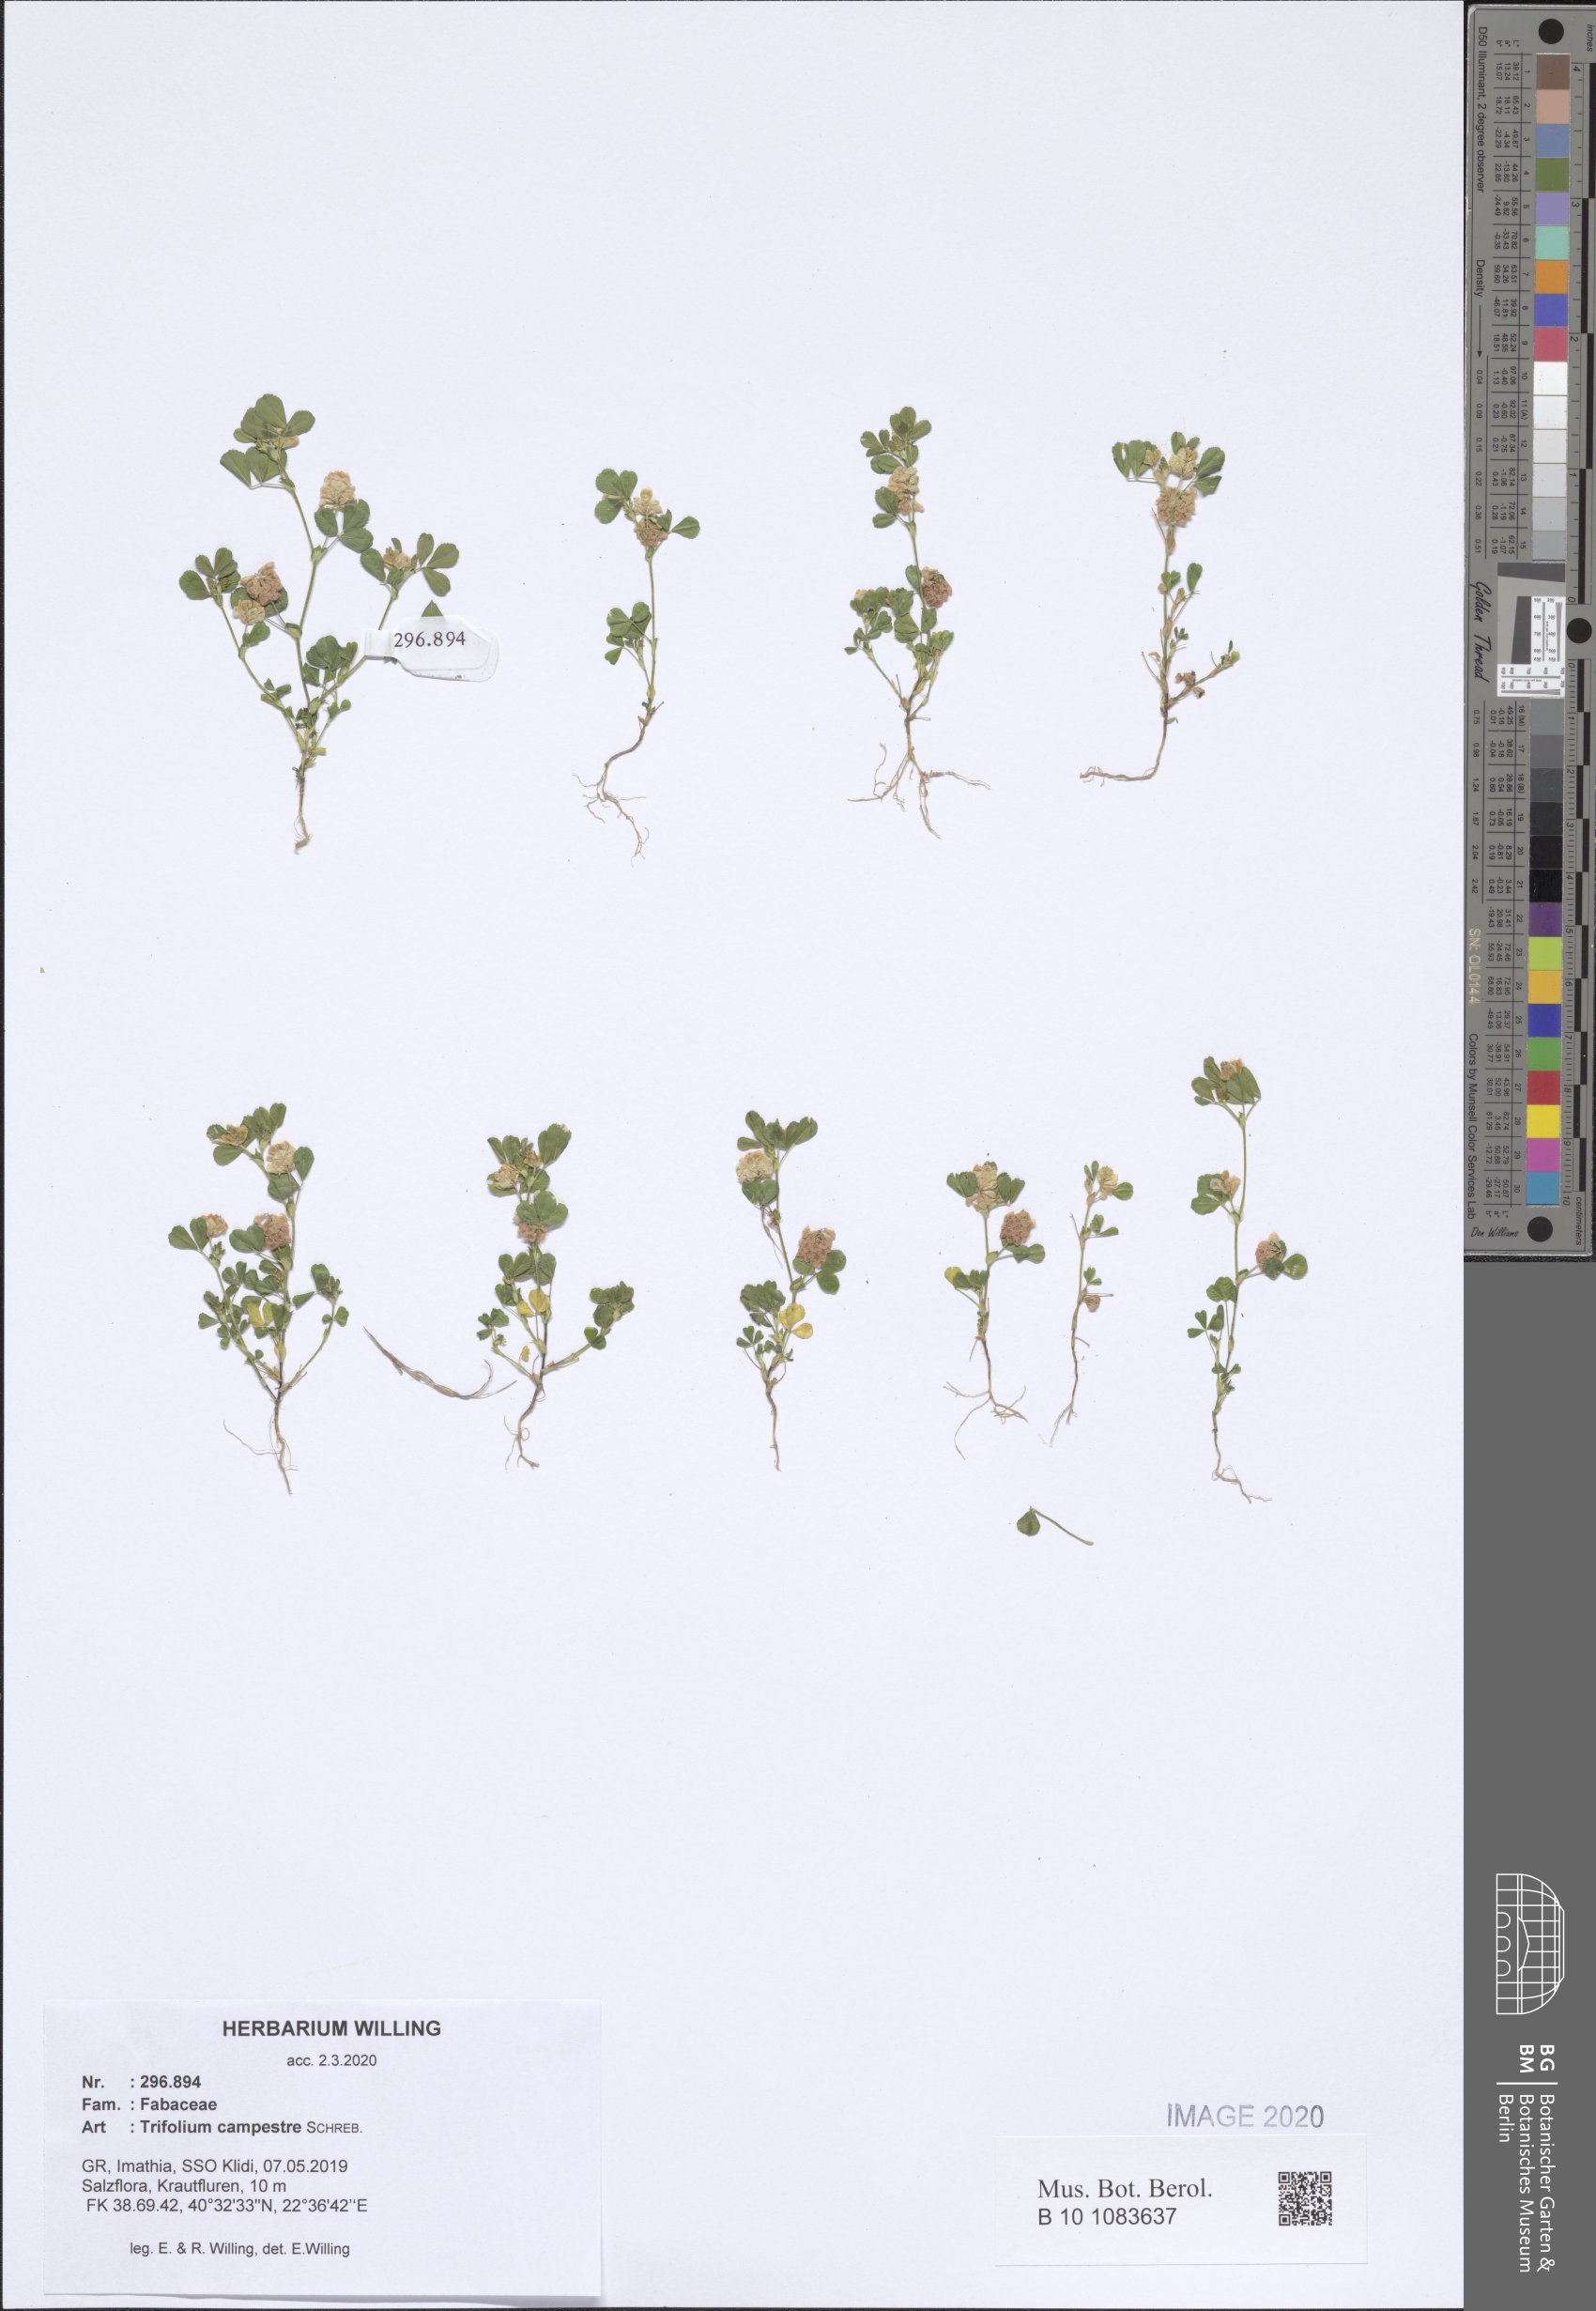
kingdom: Plantae
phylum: Tracheophyta
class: Magnoliopsida
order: Fabales
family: Fabaceae
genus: Trifolium
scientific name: Trifolium campestre
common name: Field clover
